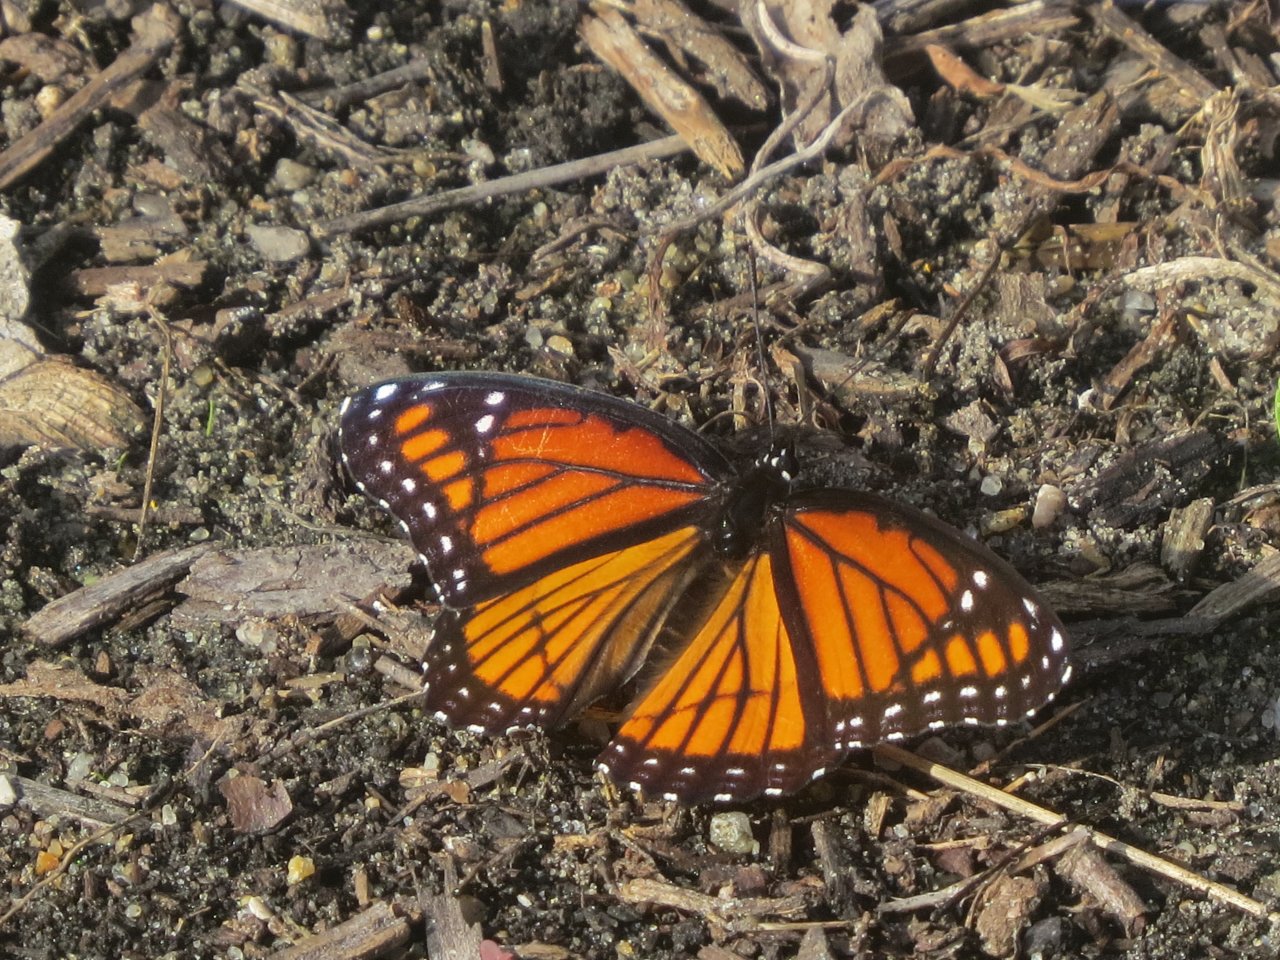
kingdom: Animalia
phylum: Arthropoda
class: Insecta
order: Lepidoptera
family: Nymphalidae
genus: Limenitis
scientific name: Limenitis archippus
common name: Viceroy
